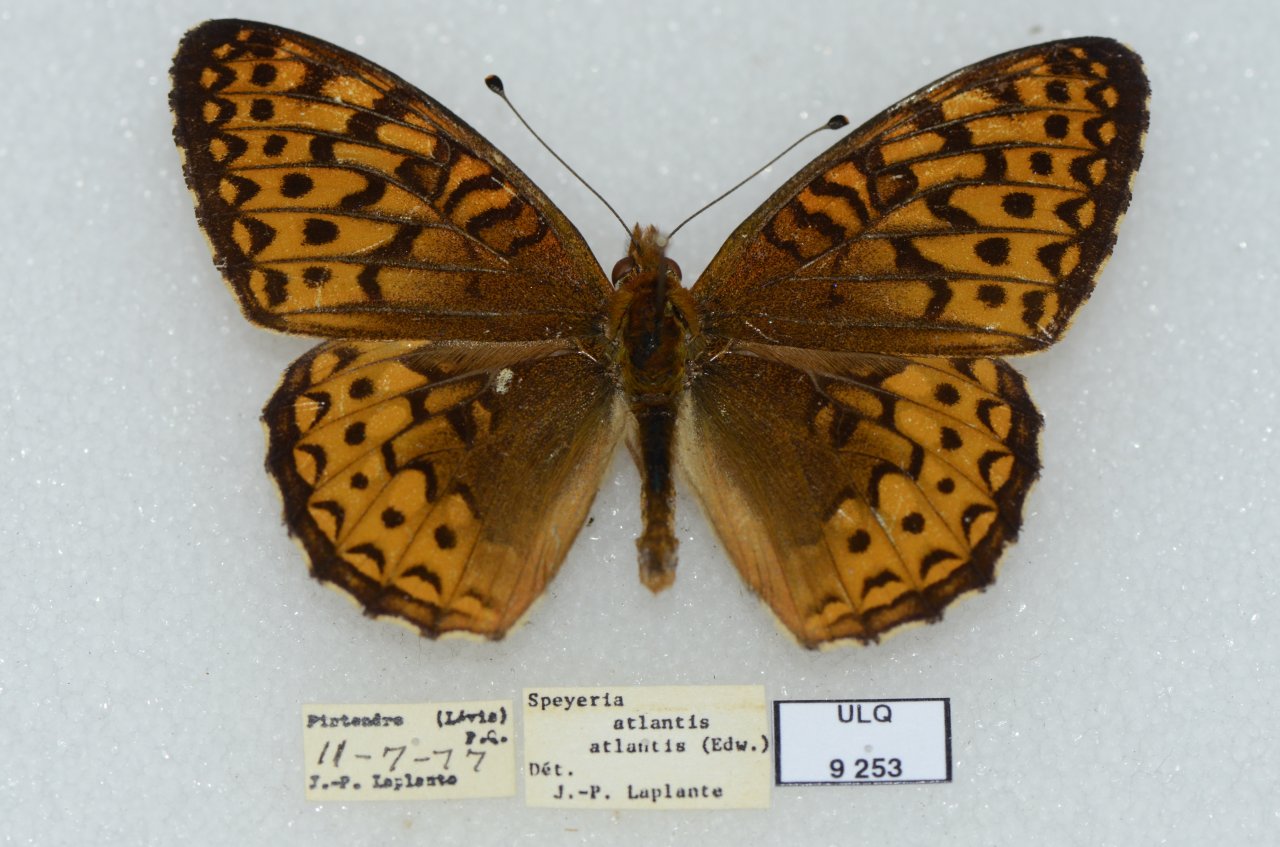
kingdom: Animalia
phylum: Arthropoda
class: Insecta
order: Lepidoptera
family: Nymphalidae
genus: Speyeria
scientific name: Speyeria atlantis
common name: Atlantis Fritillary
